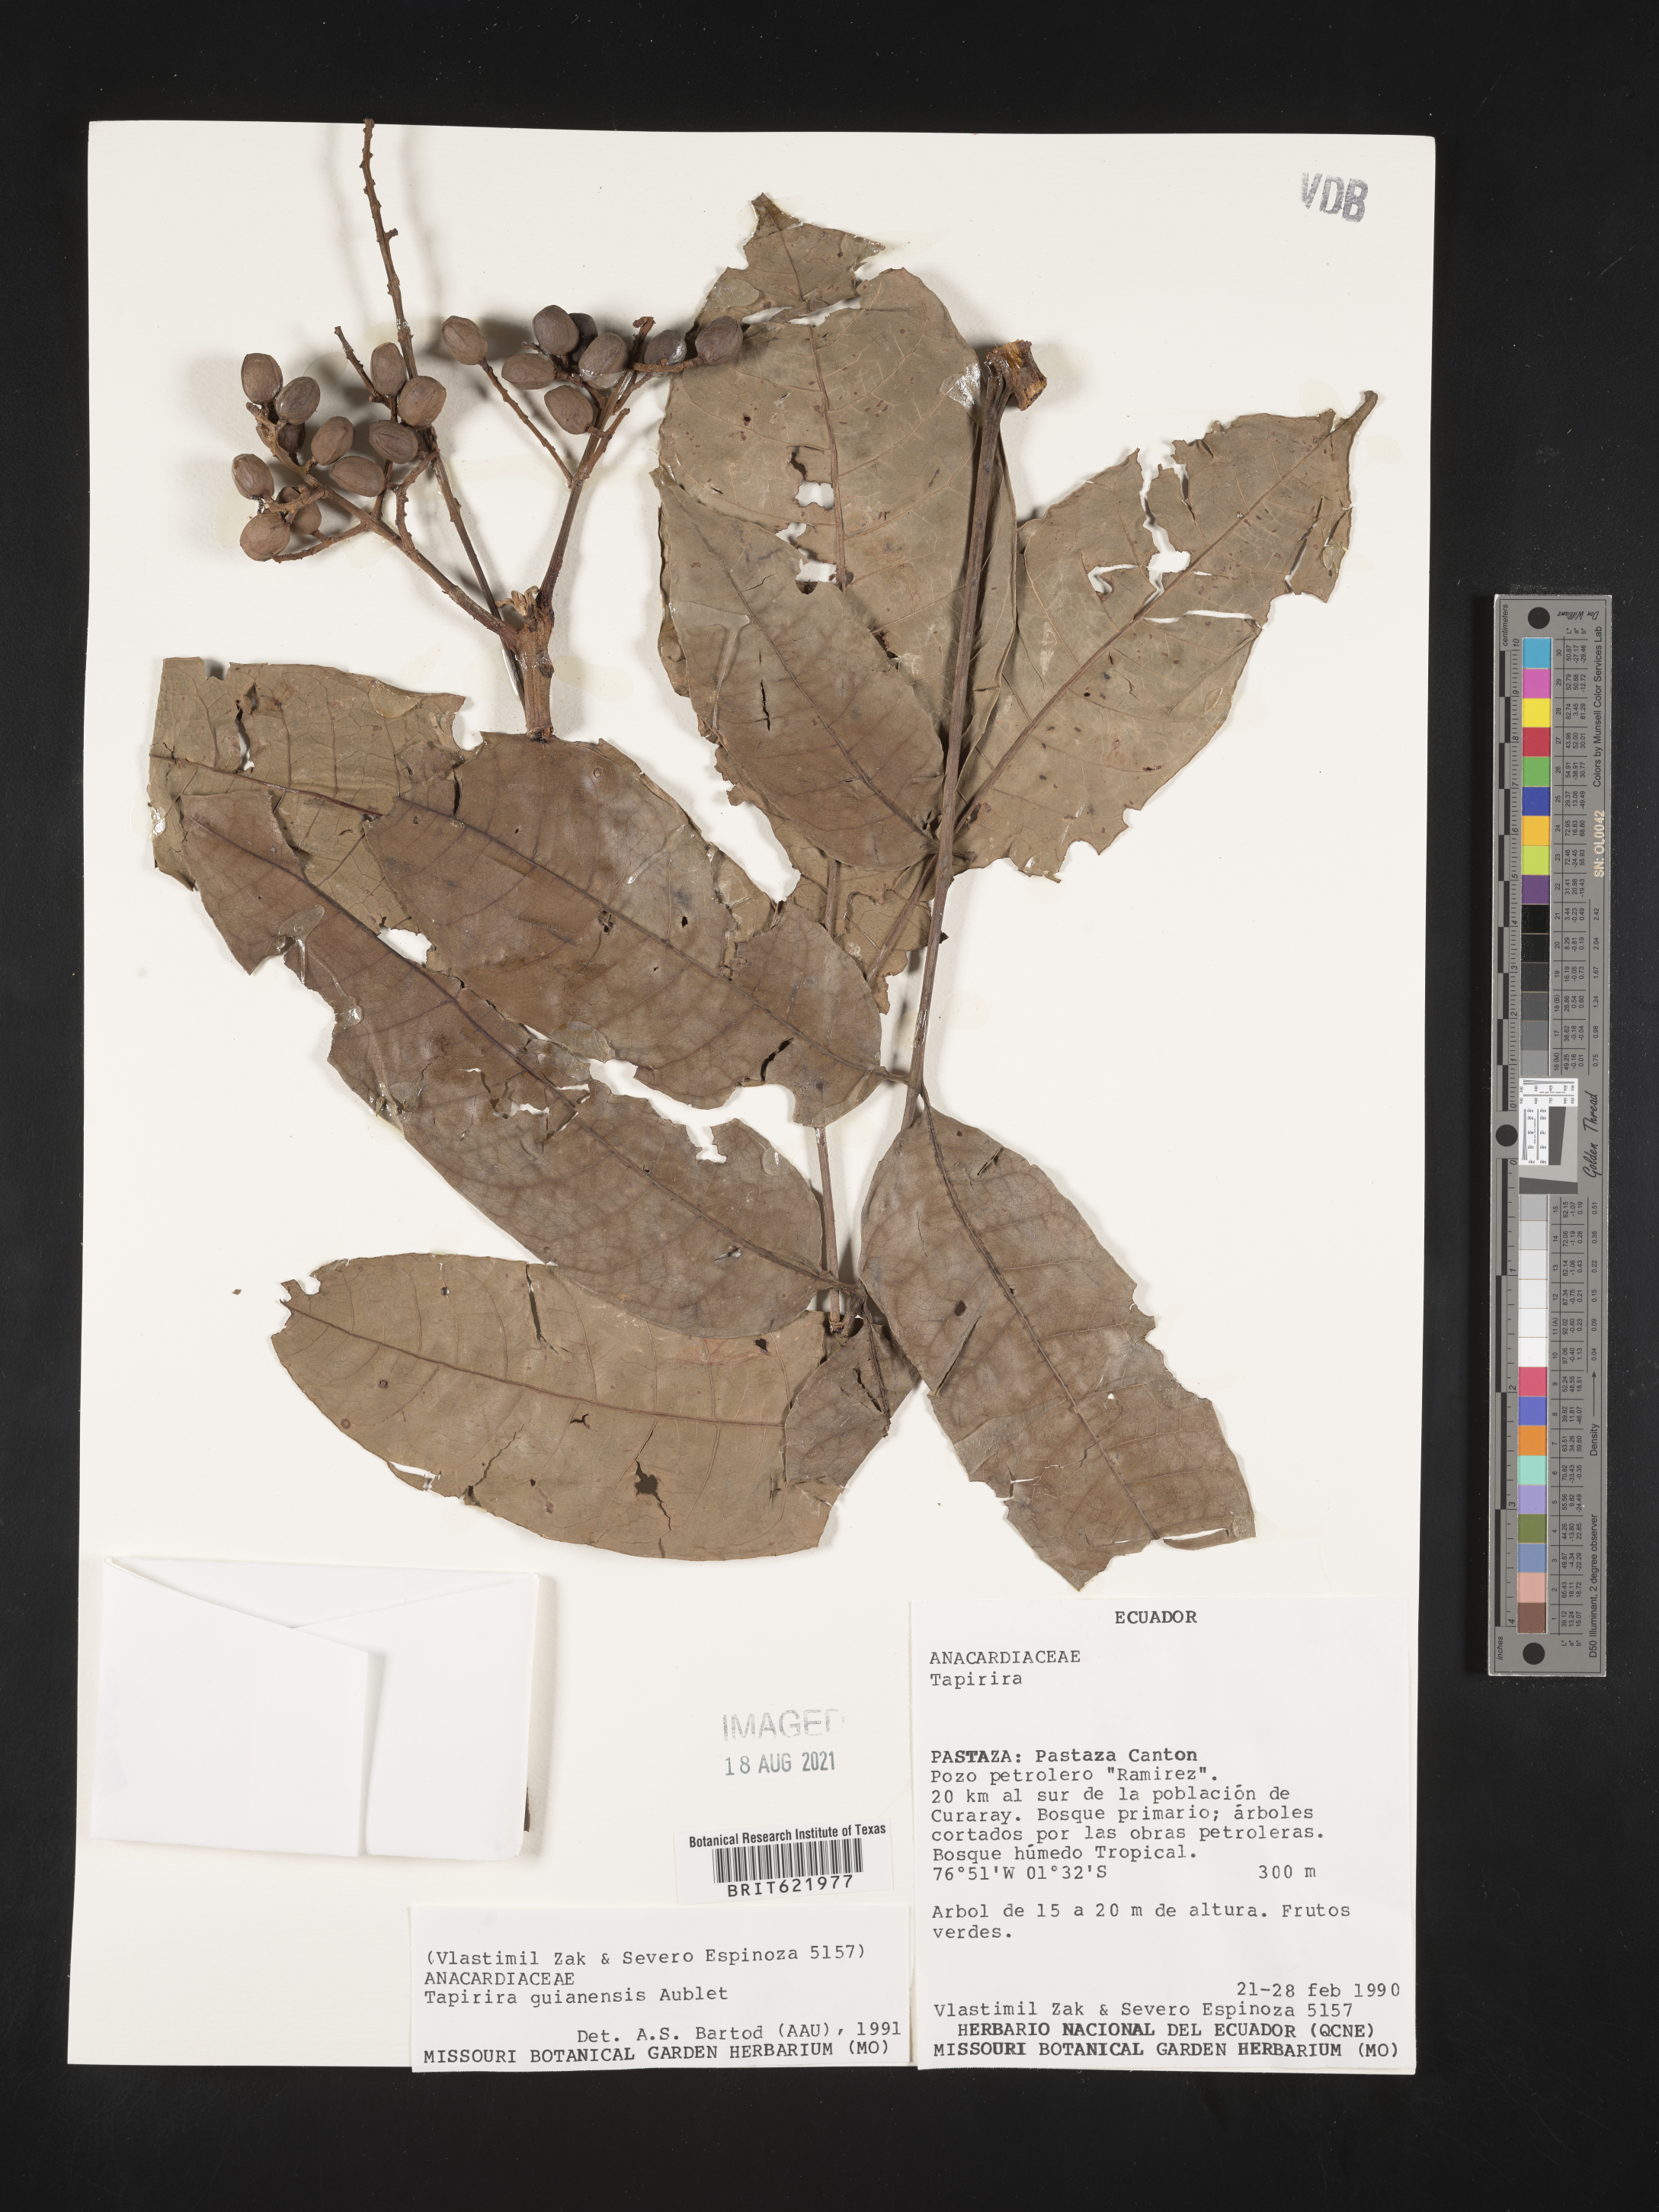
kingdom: Plantae
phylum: Tracheophyta
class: Magnoliopsida
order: Sapindales
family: Anacardiaceae
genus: Tapirira
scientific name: Tapirira guianensis
